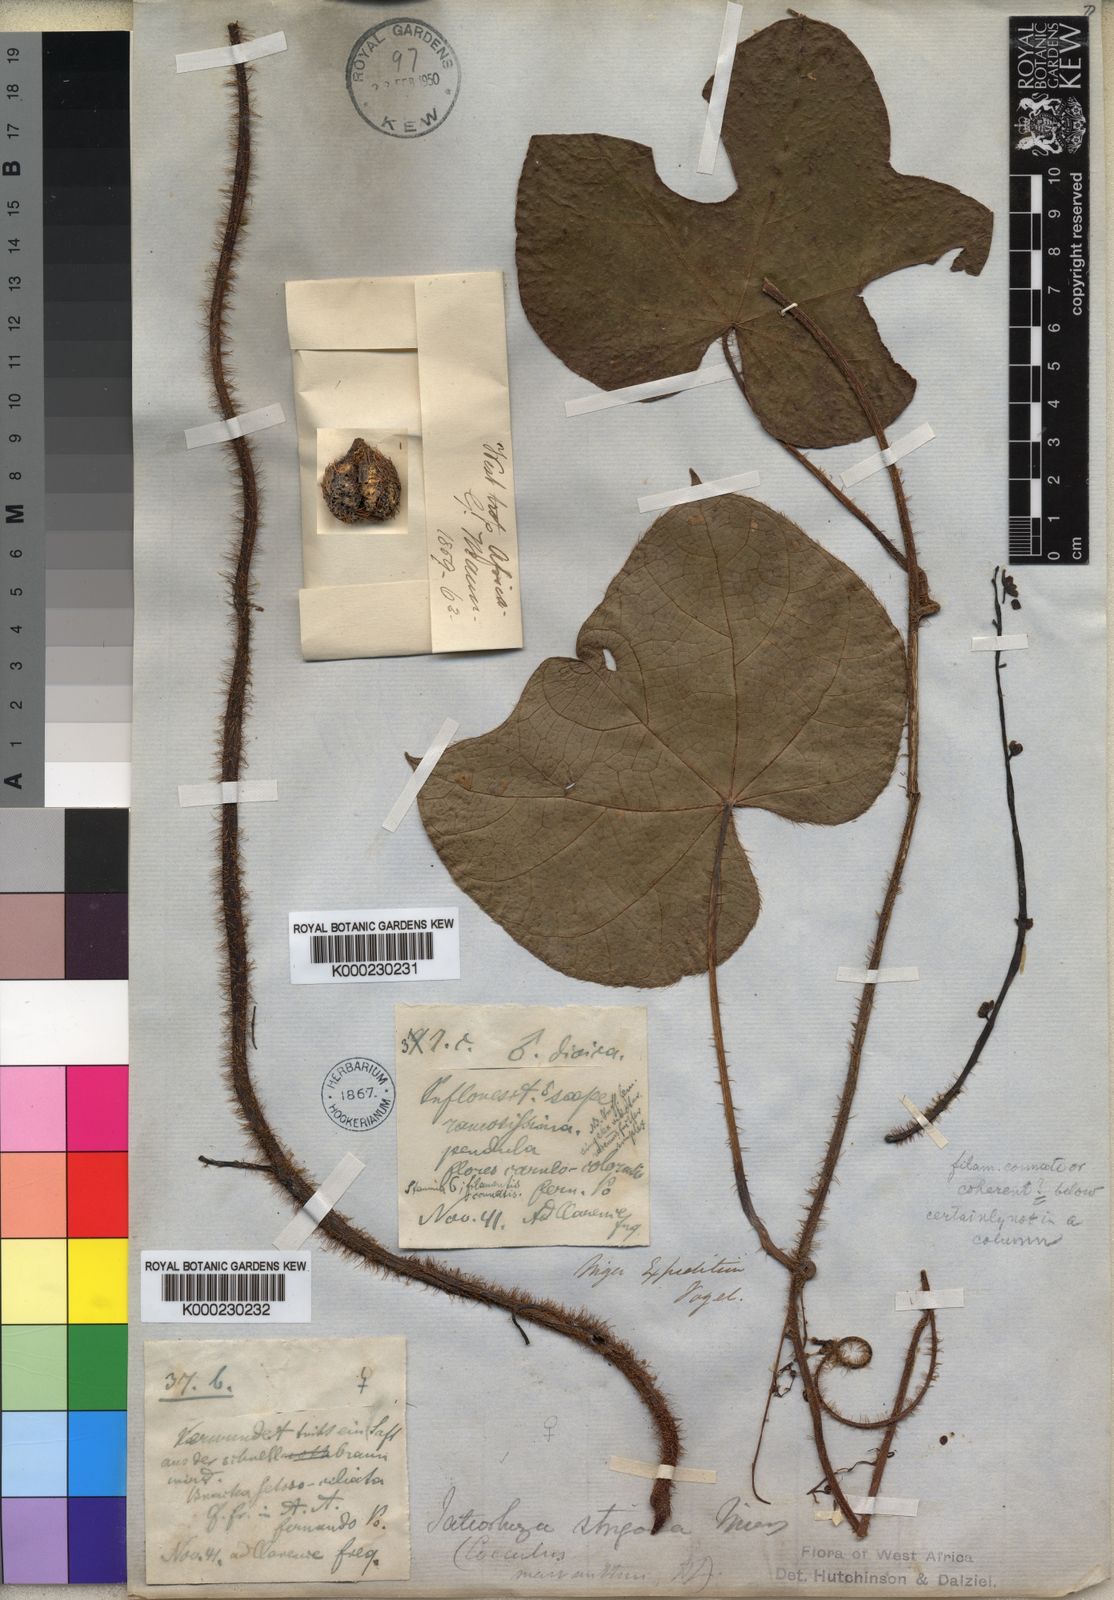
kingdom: Plantae
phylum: Tracheophyta
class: Magnoliopsida
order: Ranunculales
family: Menispermaceae
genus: Jateorhiza
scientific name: Jateorhiza
